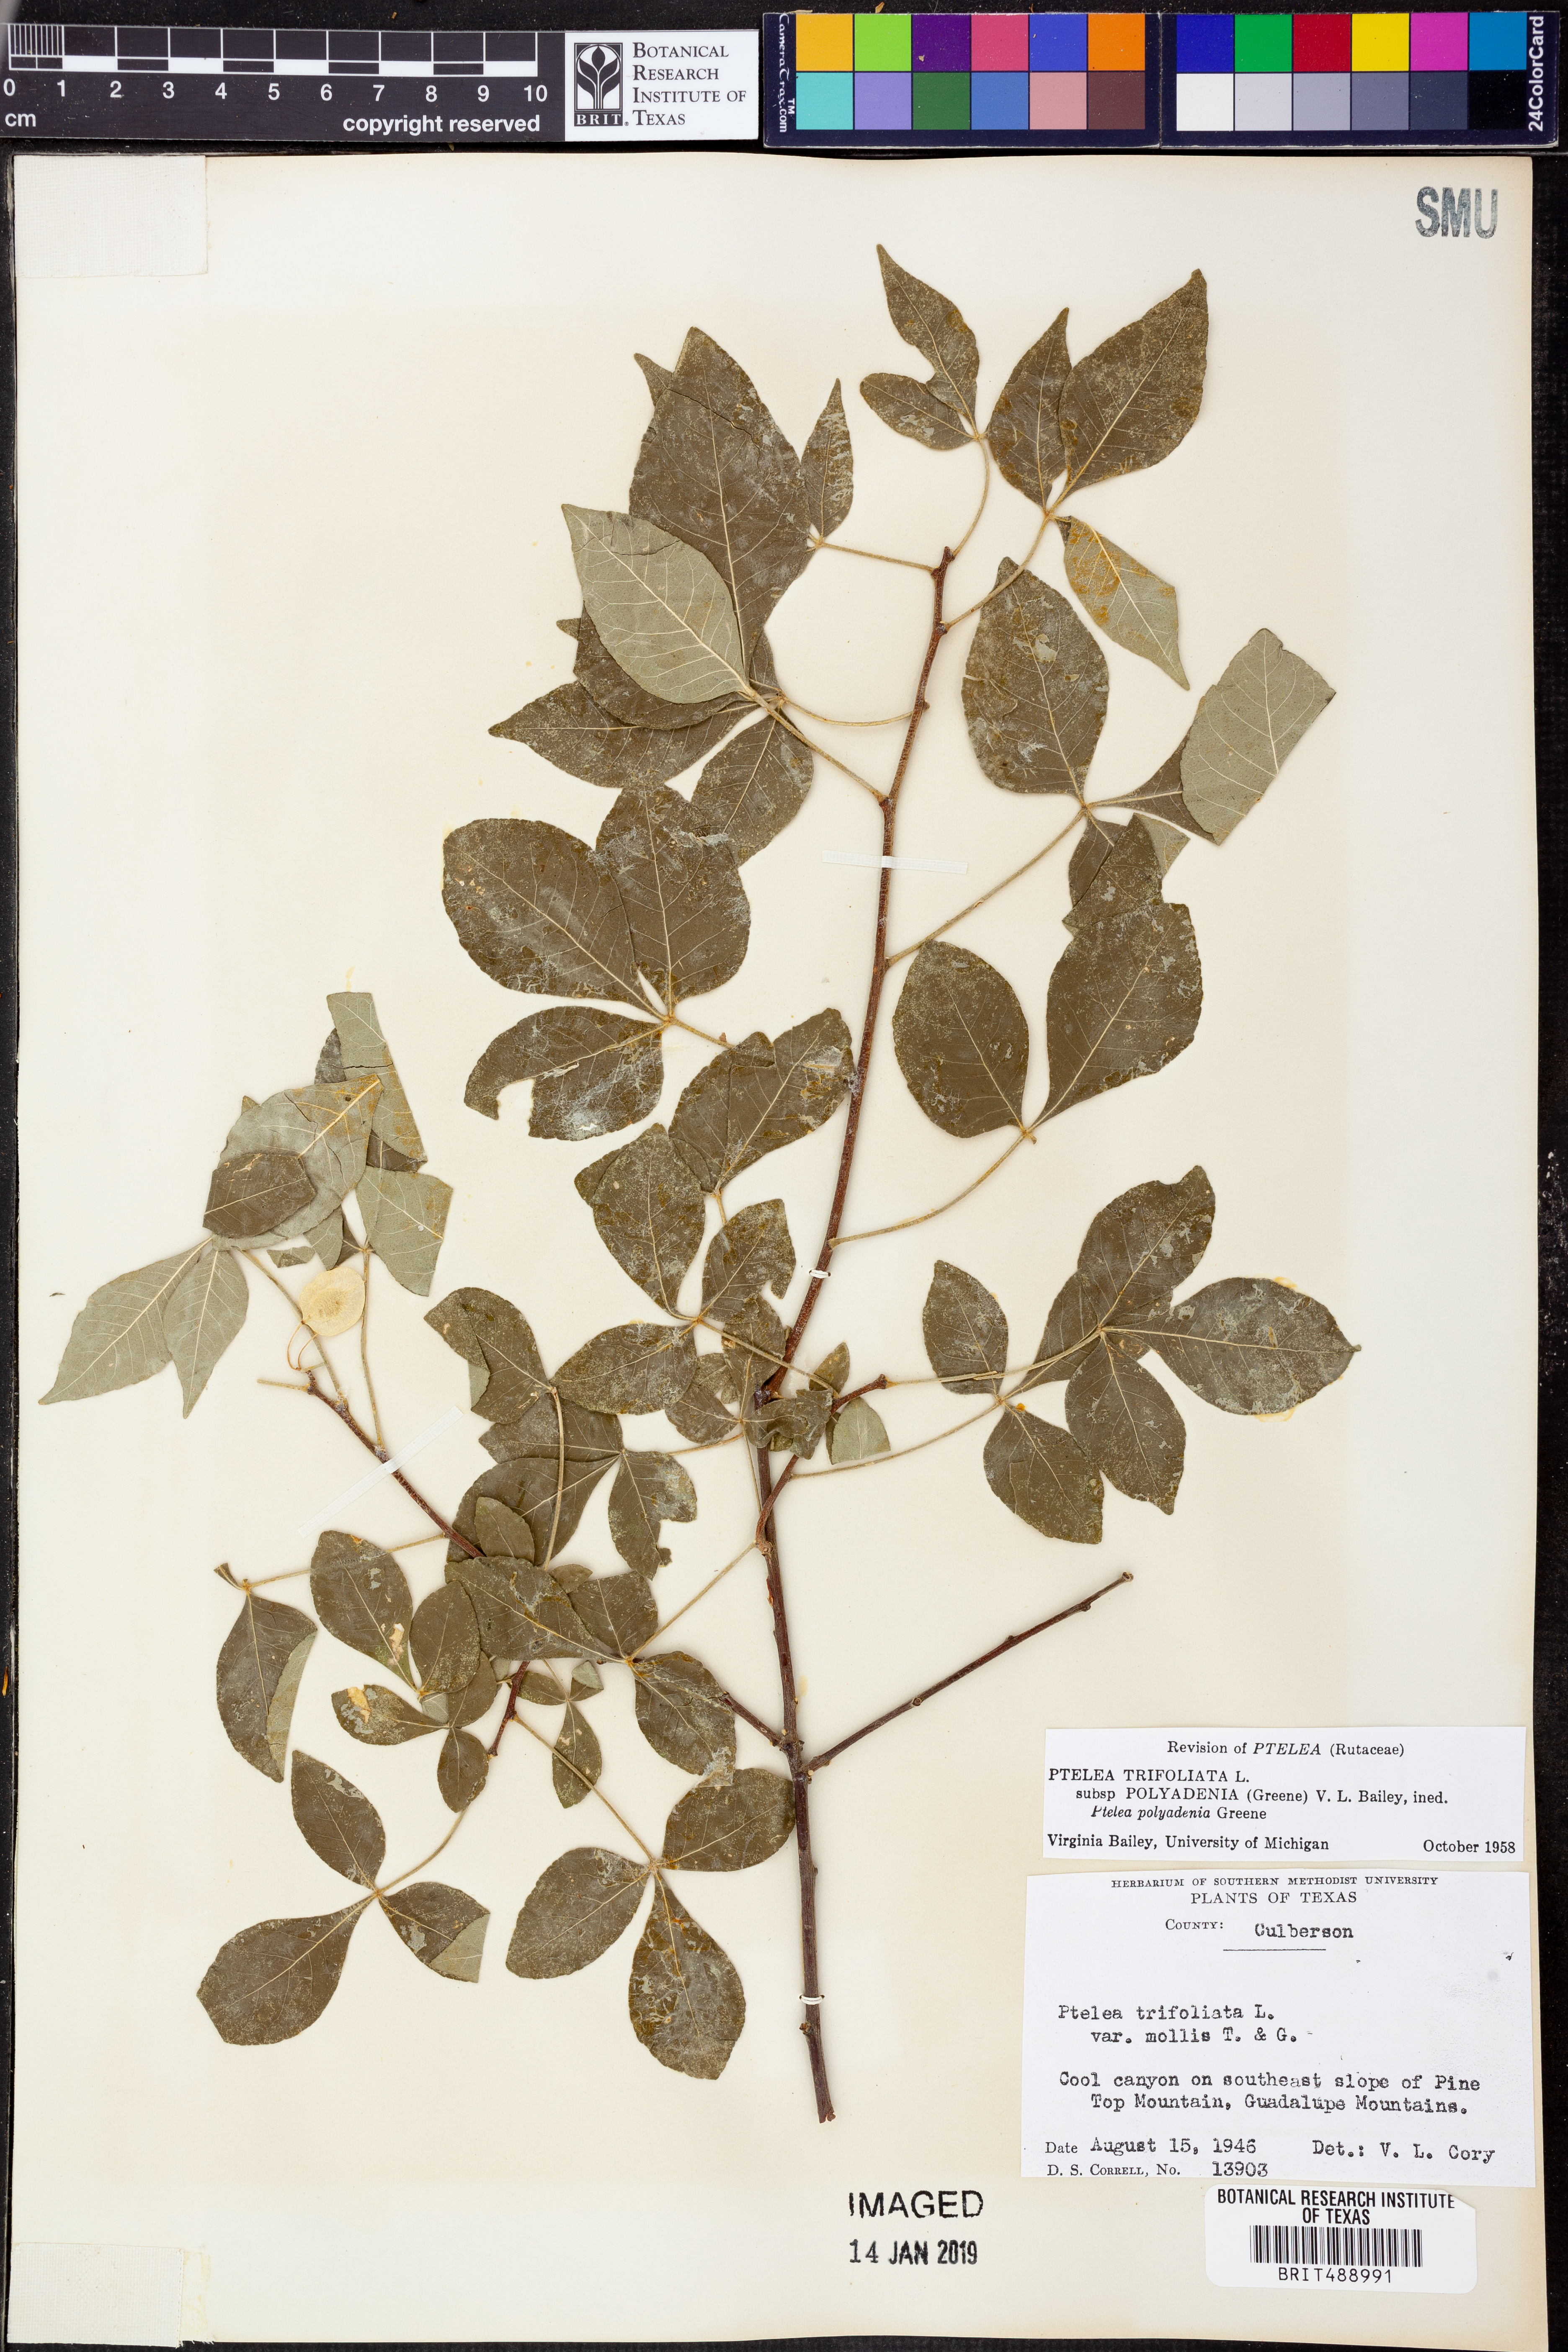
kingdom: Plantae
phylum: Tracheophyta
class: Magnoliopsida
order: Sapindales
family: Rutaceae
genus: Ptelea
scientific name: Ptelea trifoliata
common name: Common hop-tree
